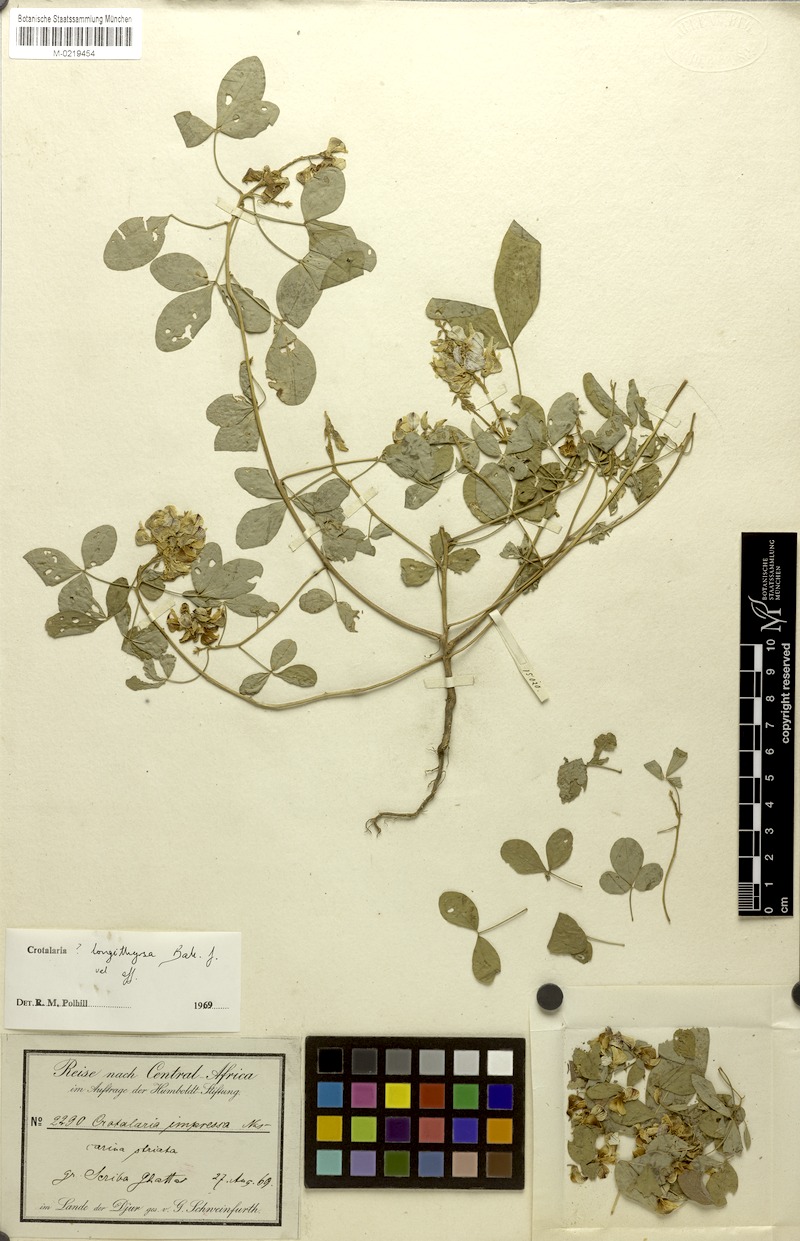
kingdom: Plantae
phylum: Tracheophyta
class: Magnoliopsida
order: Fabales
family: Fabaceae
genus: Crotalaria
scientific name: Crotalaria longithyrsa
